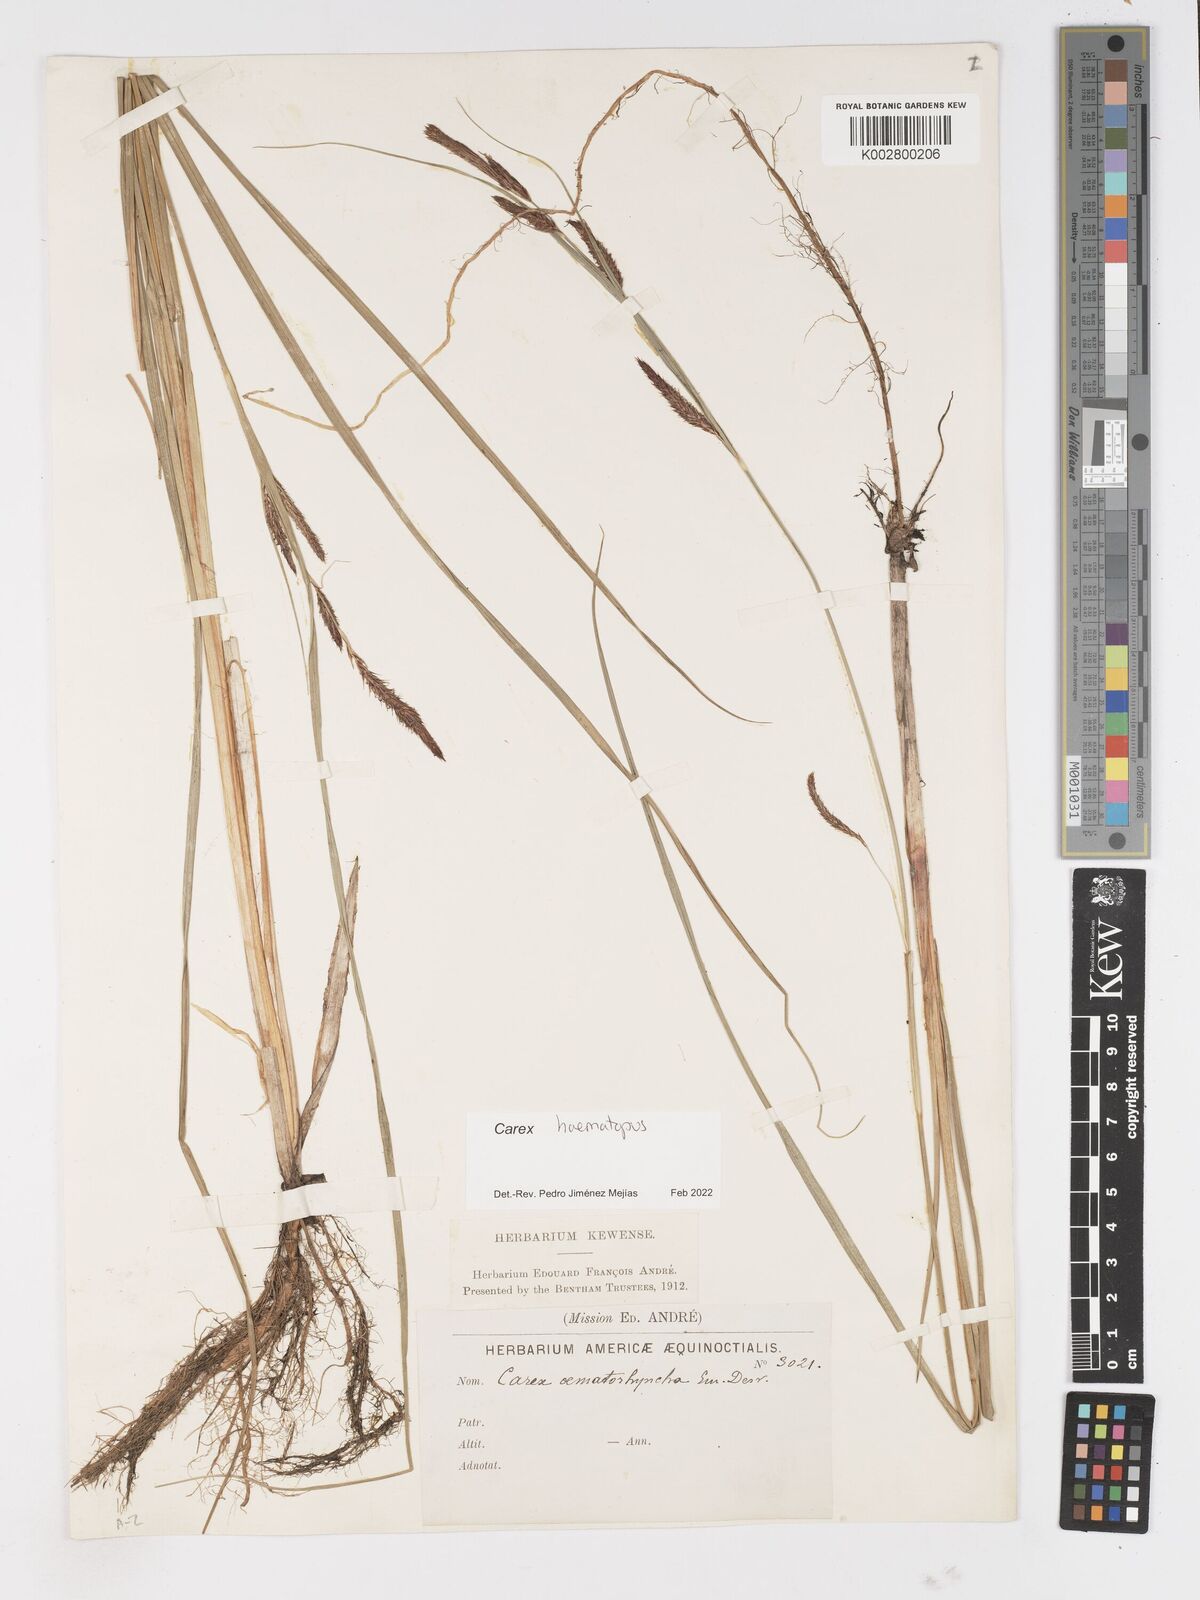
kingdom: Plantae
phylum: Tracheophyta
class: Liliopsida
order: Poales
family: Cyperaceae
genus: Carex
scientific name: Carex haematopus
